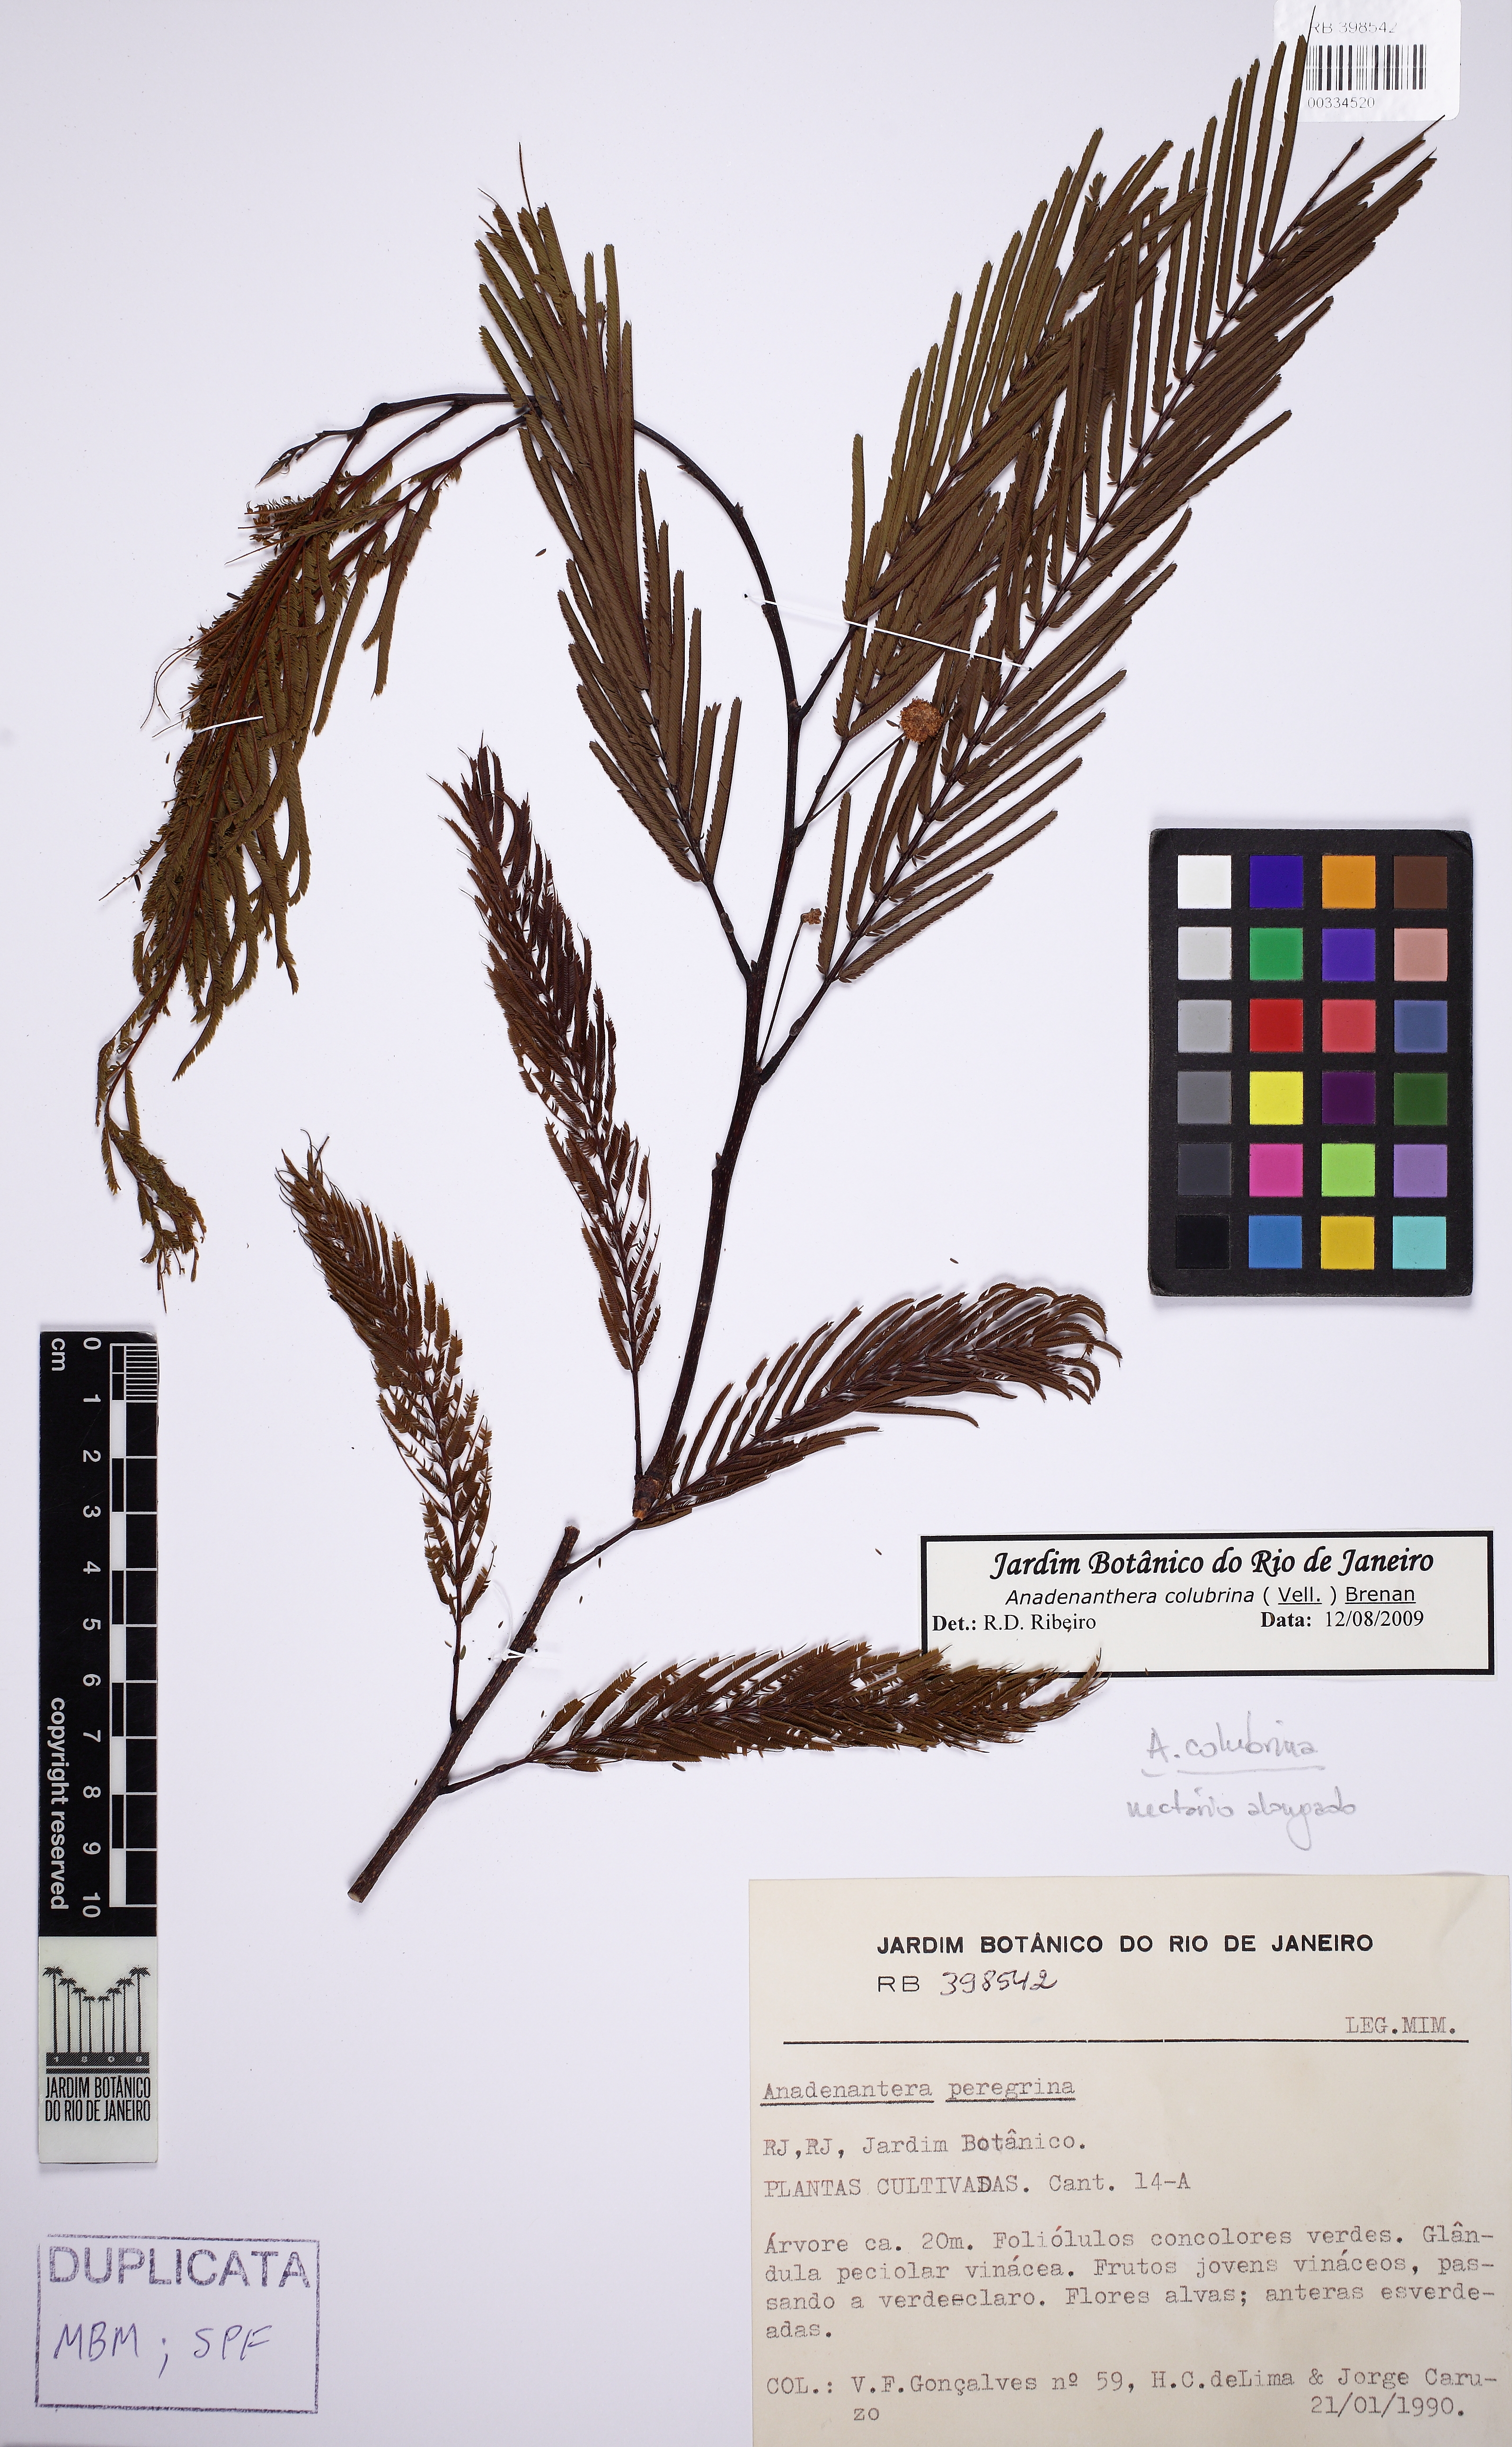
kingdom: Plantae
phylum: Tracheophyta
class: Magnoliopsida
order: Fabales
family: Fabaceae
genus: Anadenanthera
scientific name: Anadenanthera colubrina
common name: Curupay
